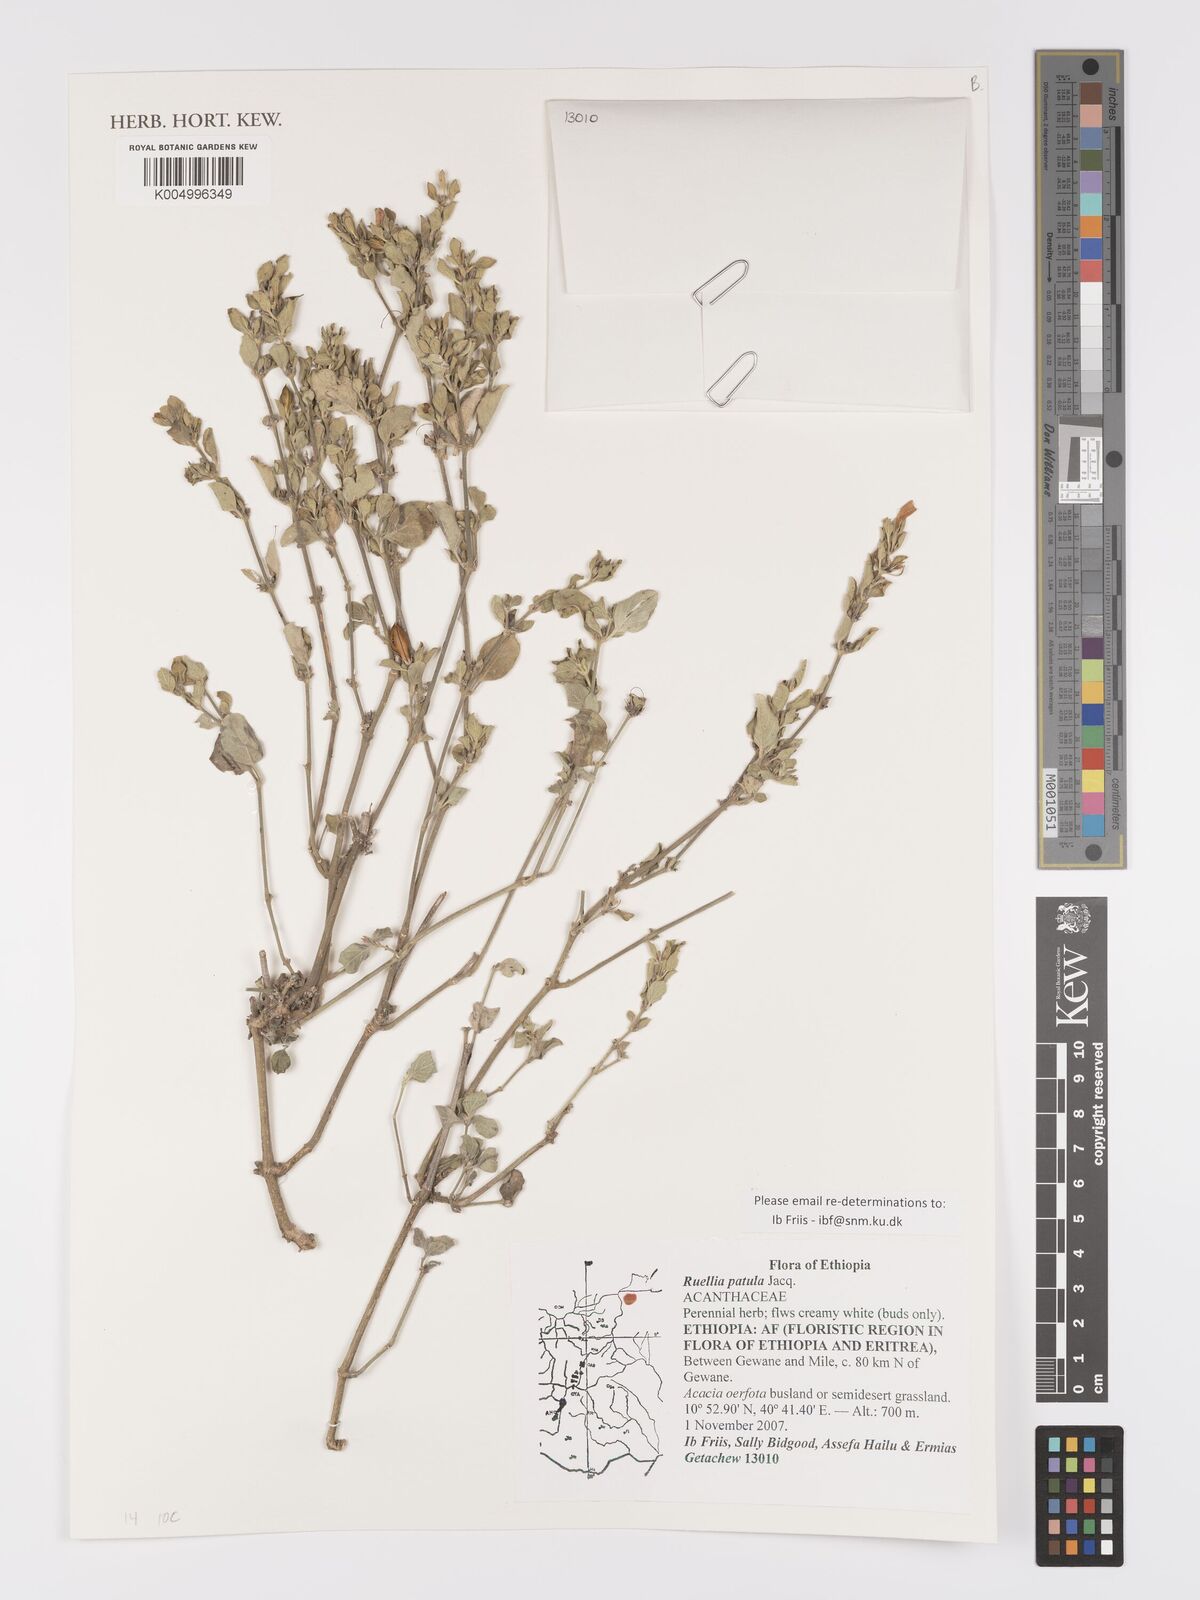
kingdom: Plantae
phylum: Tracheophyta
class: Magnoliopsida
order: Lamiales
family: Acanthaceae
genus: Ruellia
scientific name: Ruellia patula
